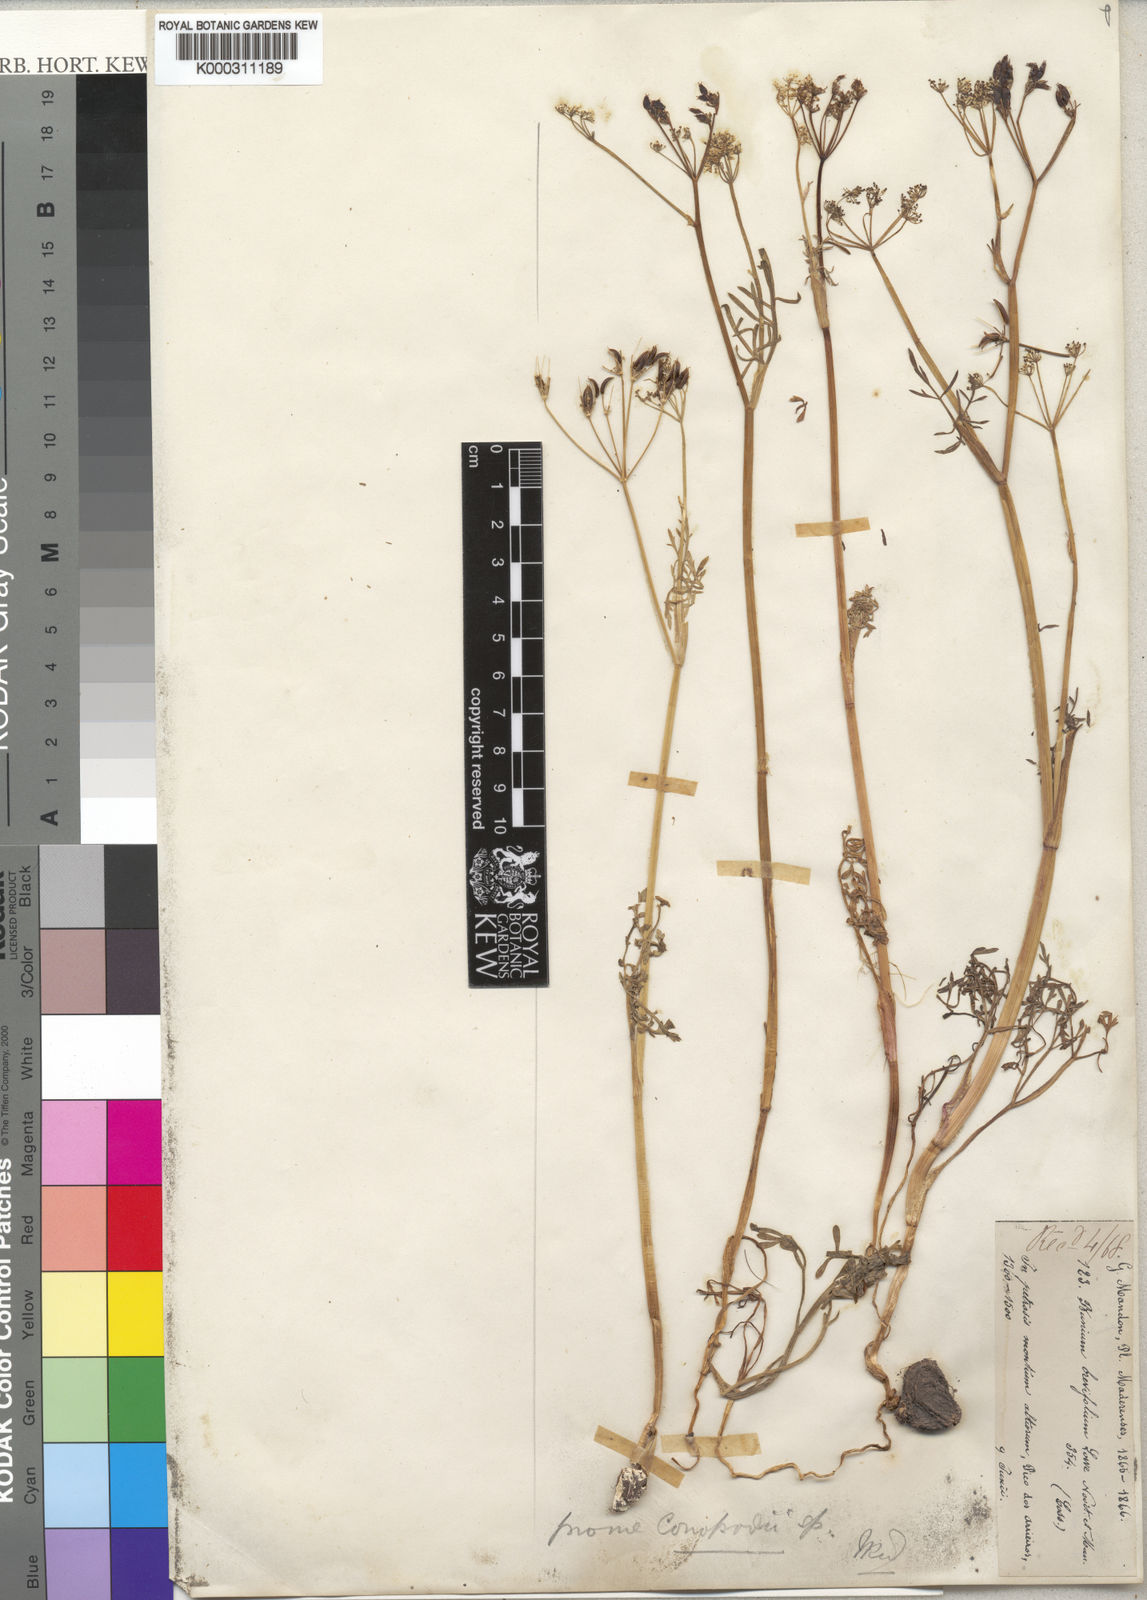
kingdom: Plantae
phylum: Tracheophyta
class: Magnoliopsida
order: Apiales
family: Apiaceae
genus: Pimpinella
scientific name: Pimpinella
